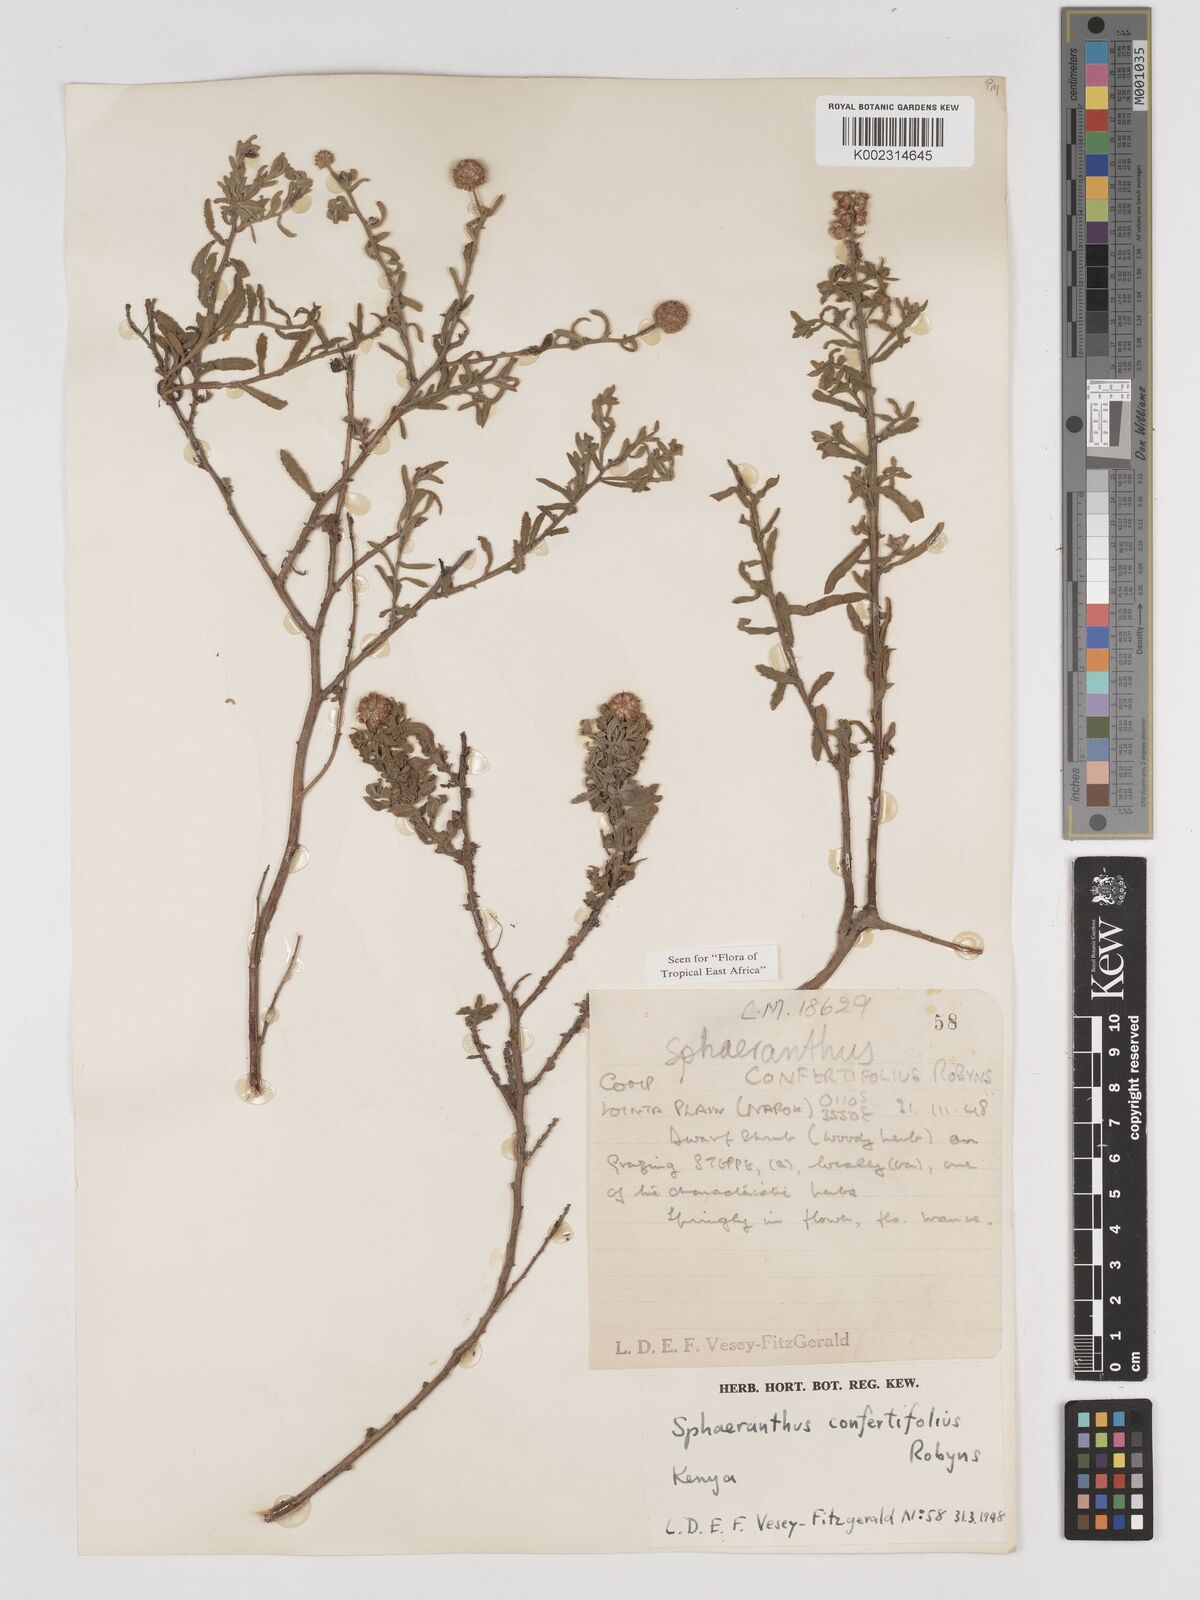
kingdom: Plantae
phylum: Tracheophyta
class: Magnoliopsida
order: Asterales
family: Asteraceae
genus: Sphaeranthus
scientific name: Sphaeranthus confertifolius
